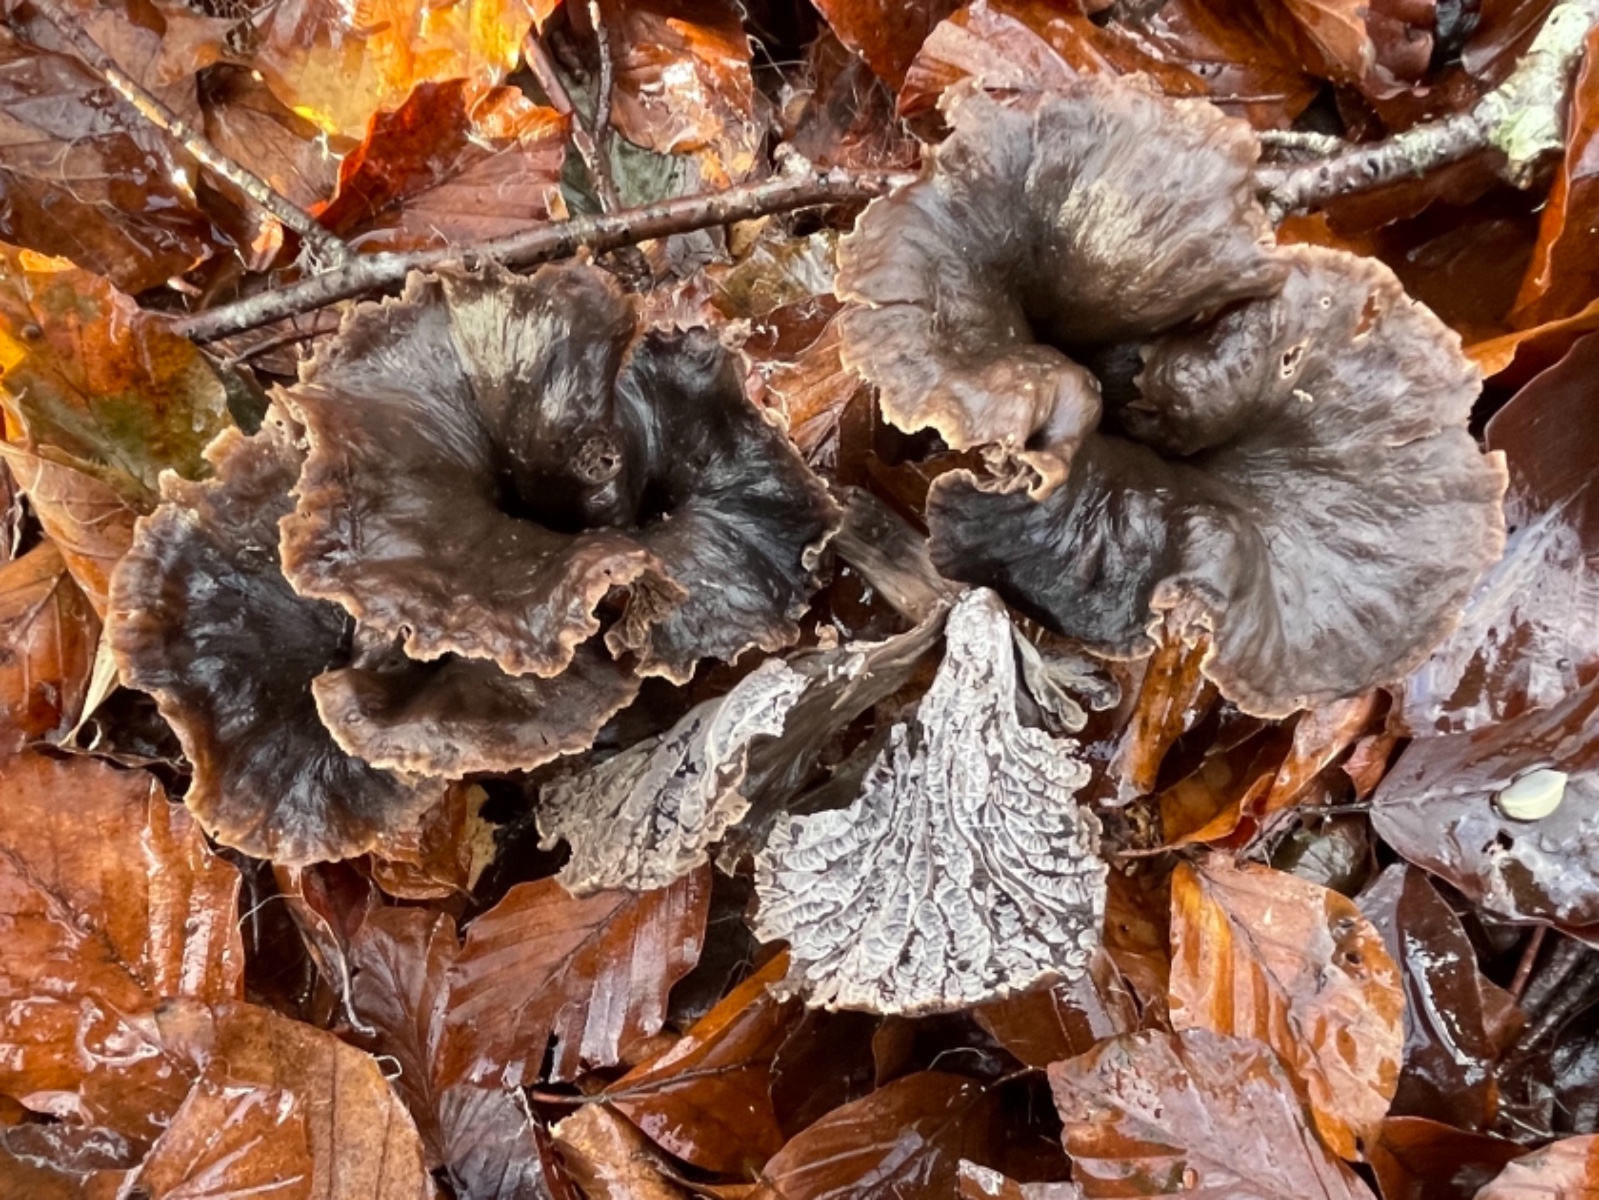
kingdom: Fungi
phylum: Basidiomycota
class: Agaricomycetes
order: Cantharellales
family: Hydnaceae
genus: Cantharellus
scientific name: Cantharellus cinereus
